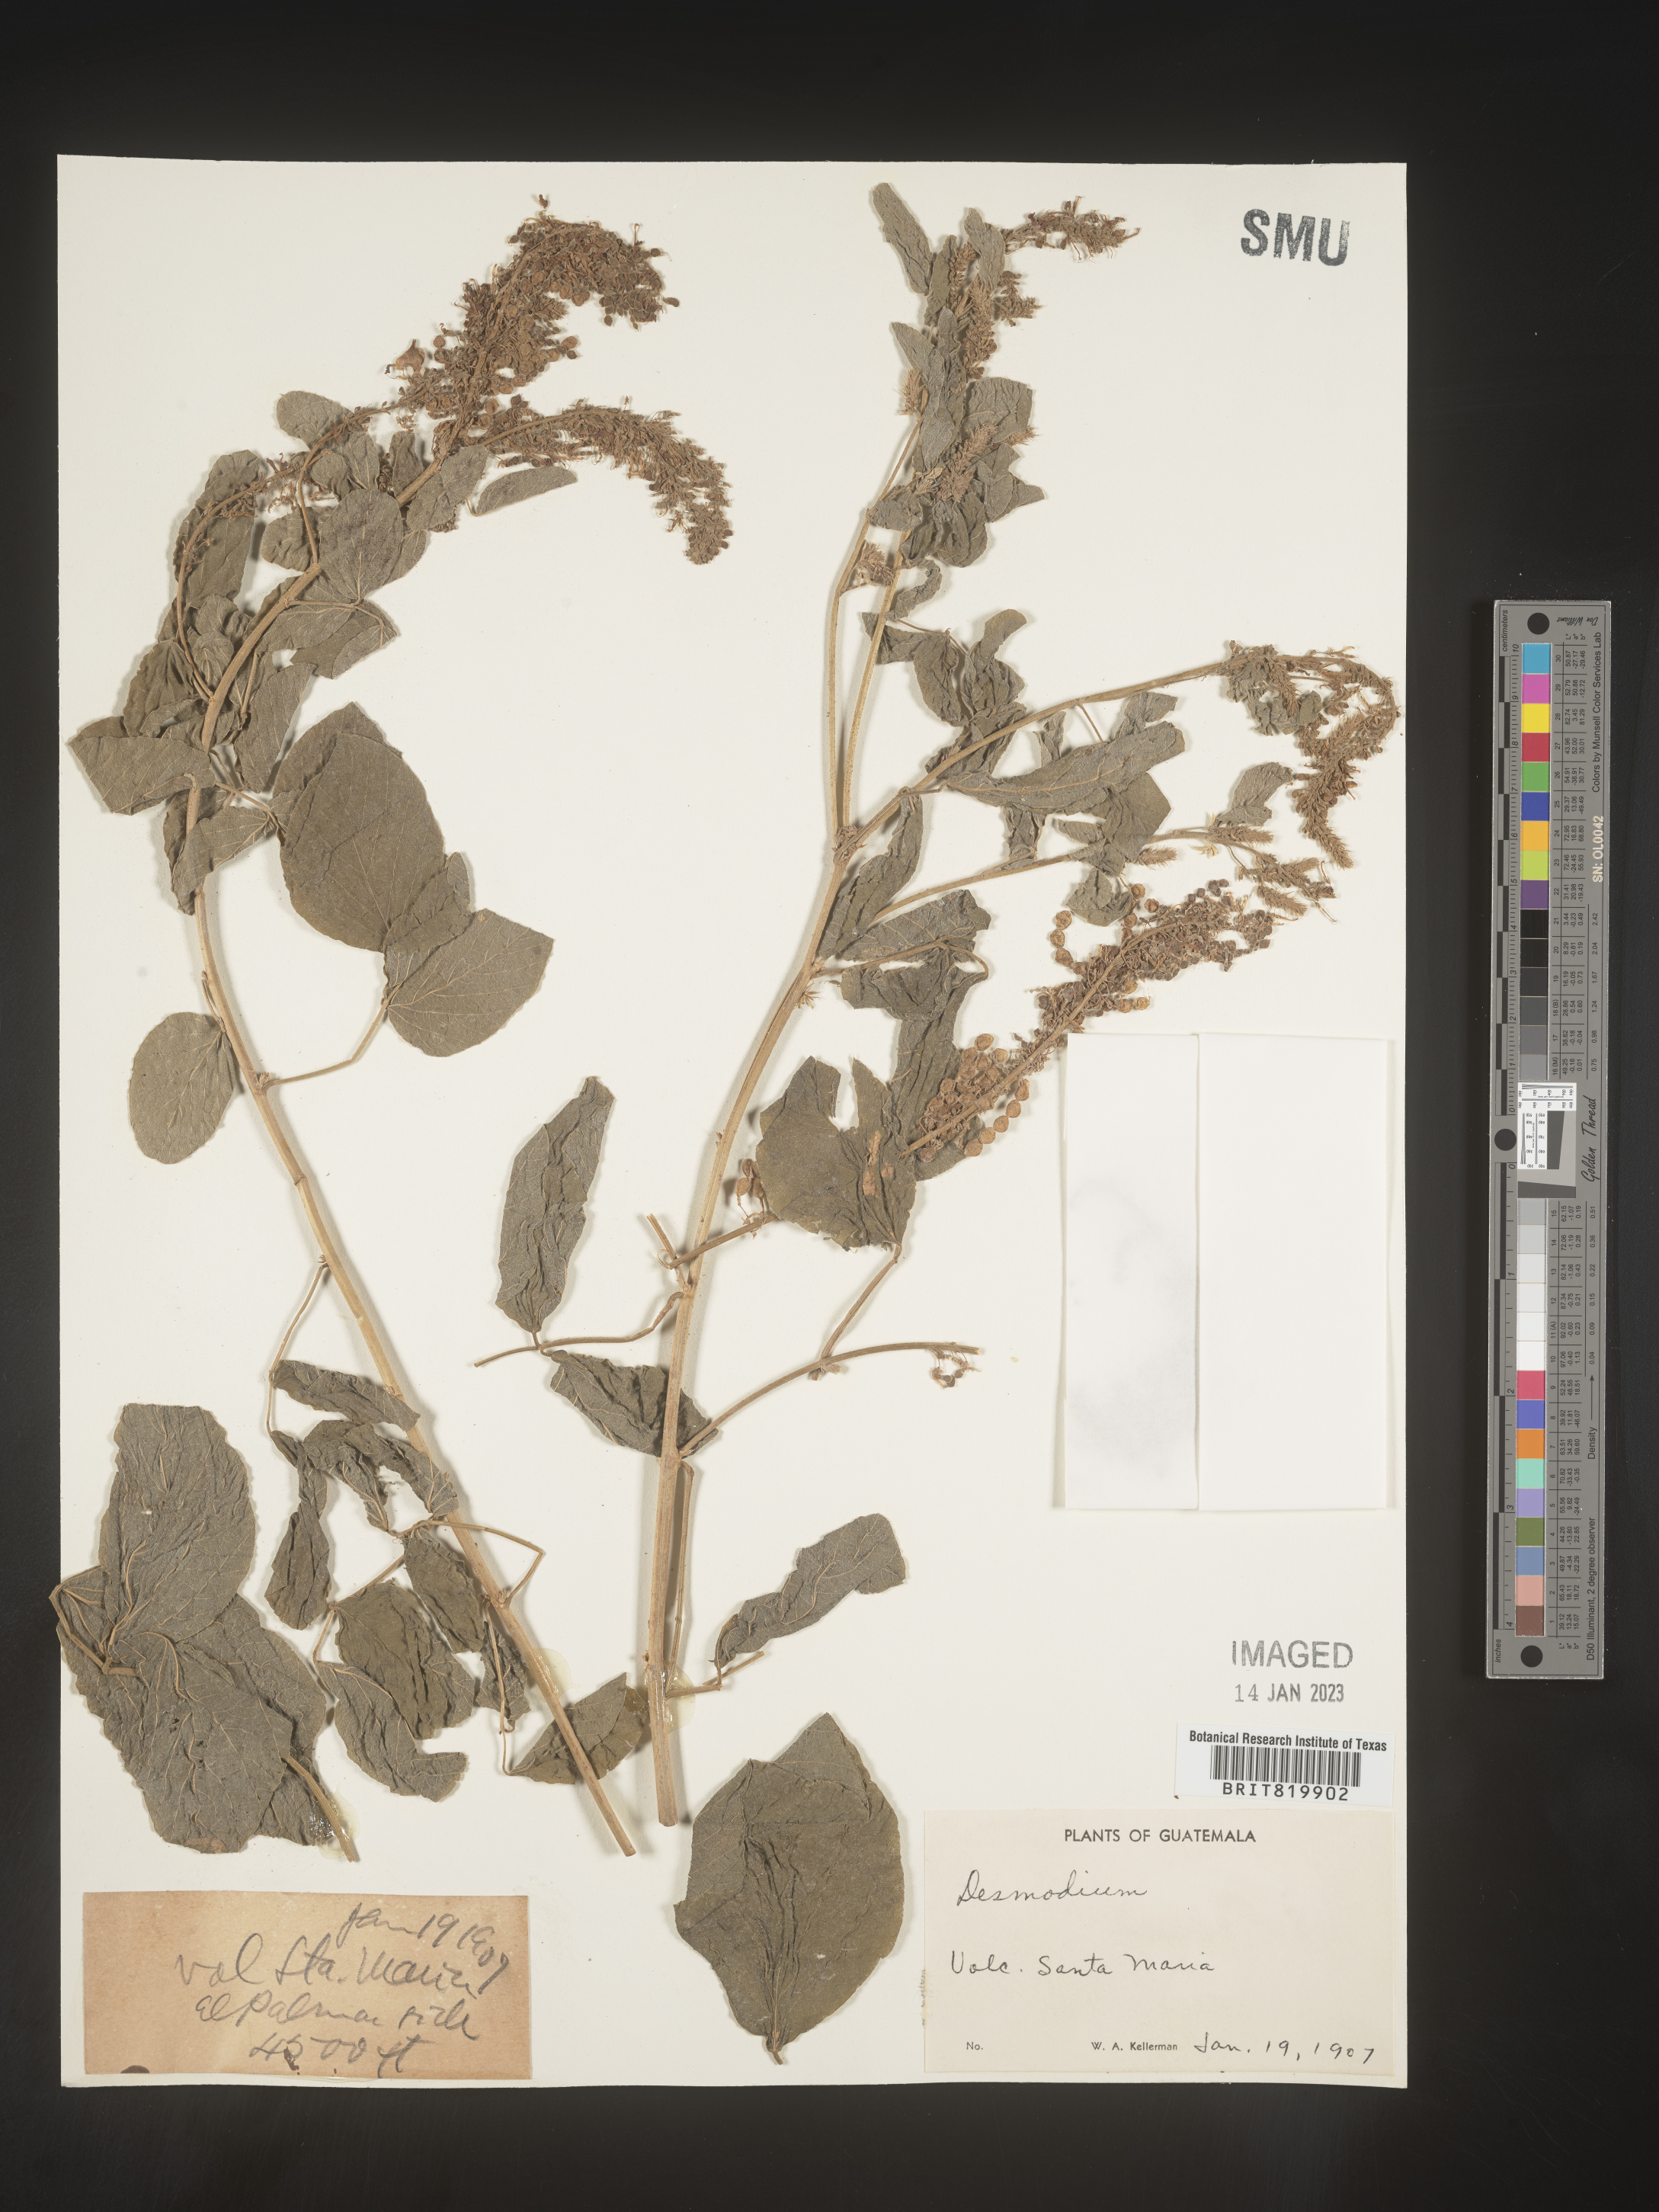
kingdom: Plantae
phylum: Tracheophyta
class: Magnoliopsida
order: Fabales
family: Fabaceae
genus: Desmodium
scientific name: Desmodium
